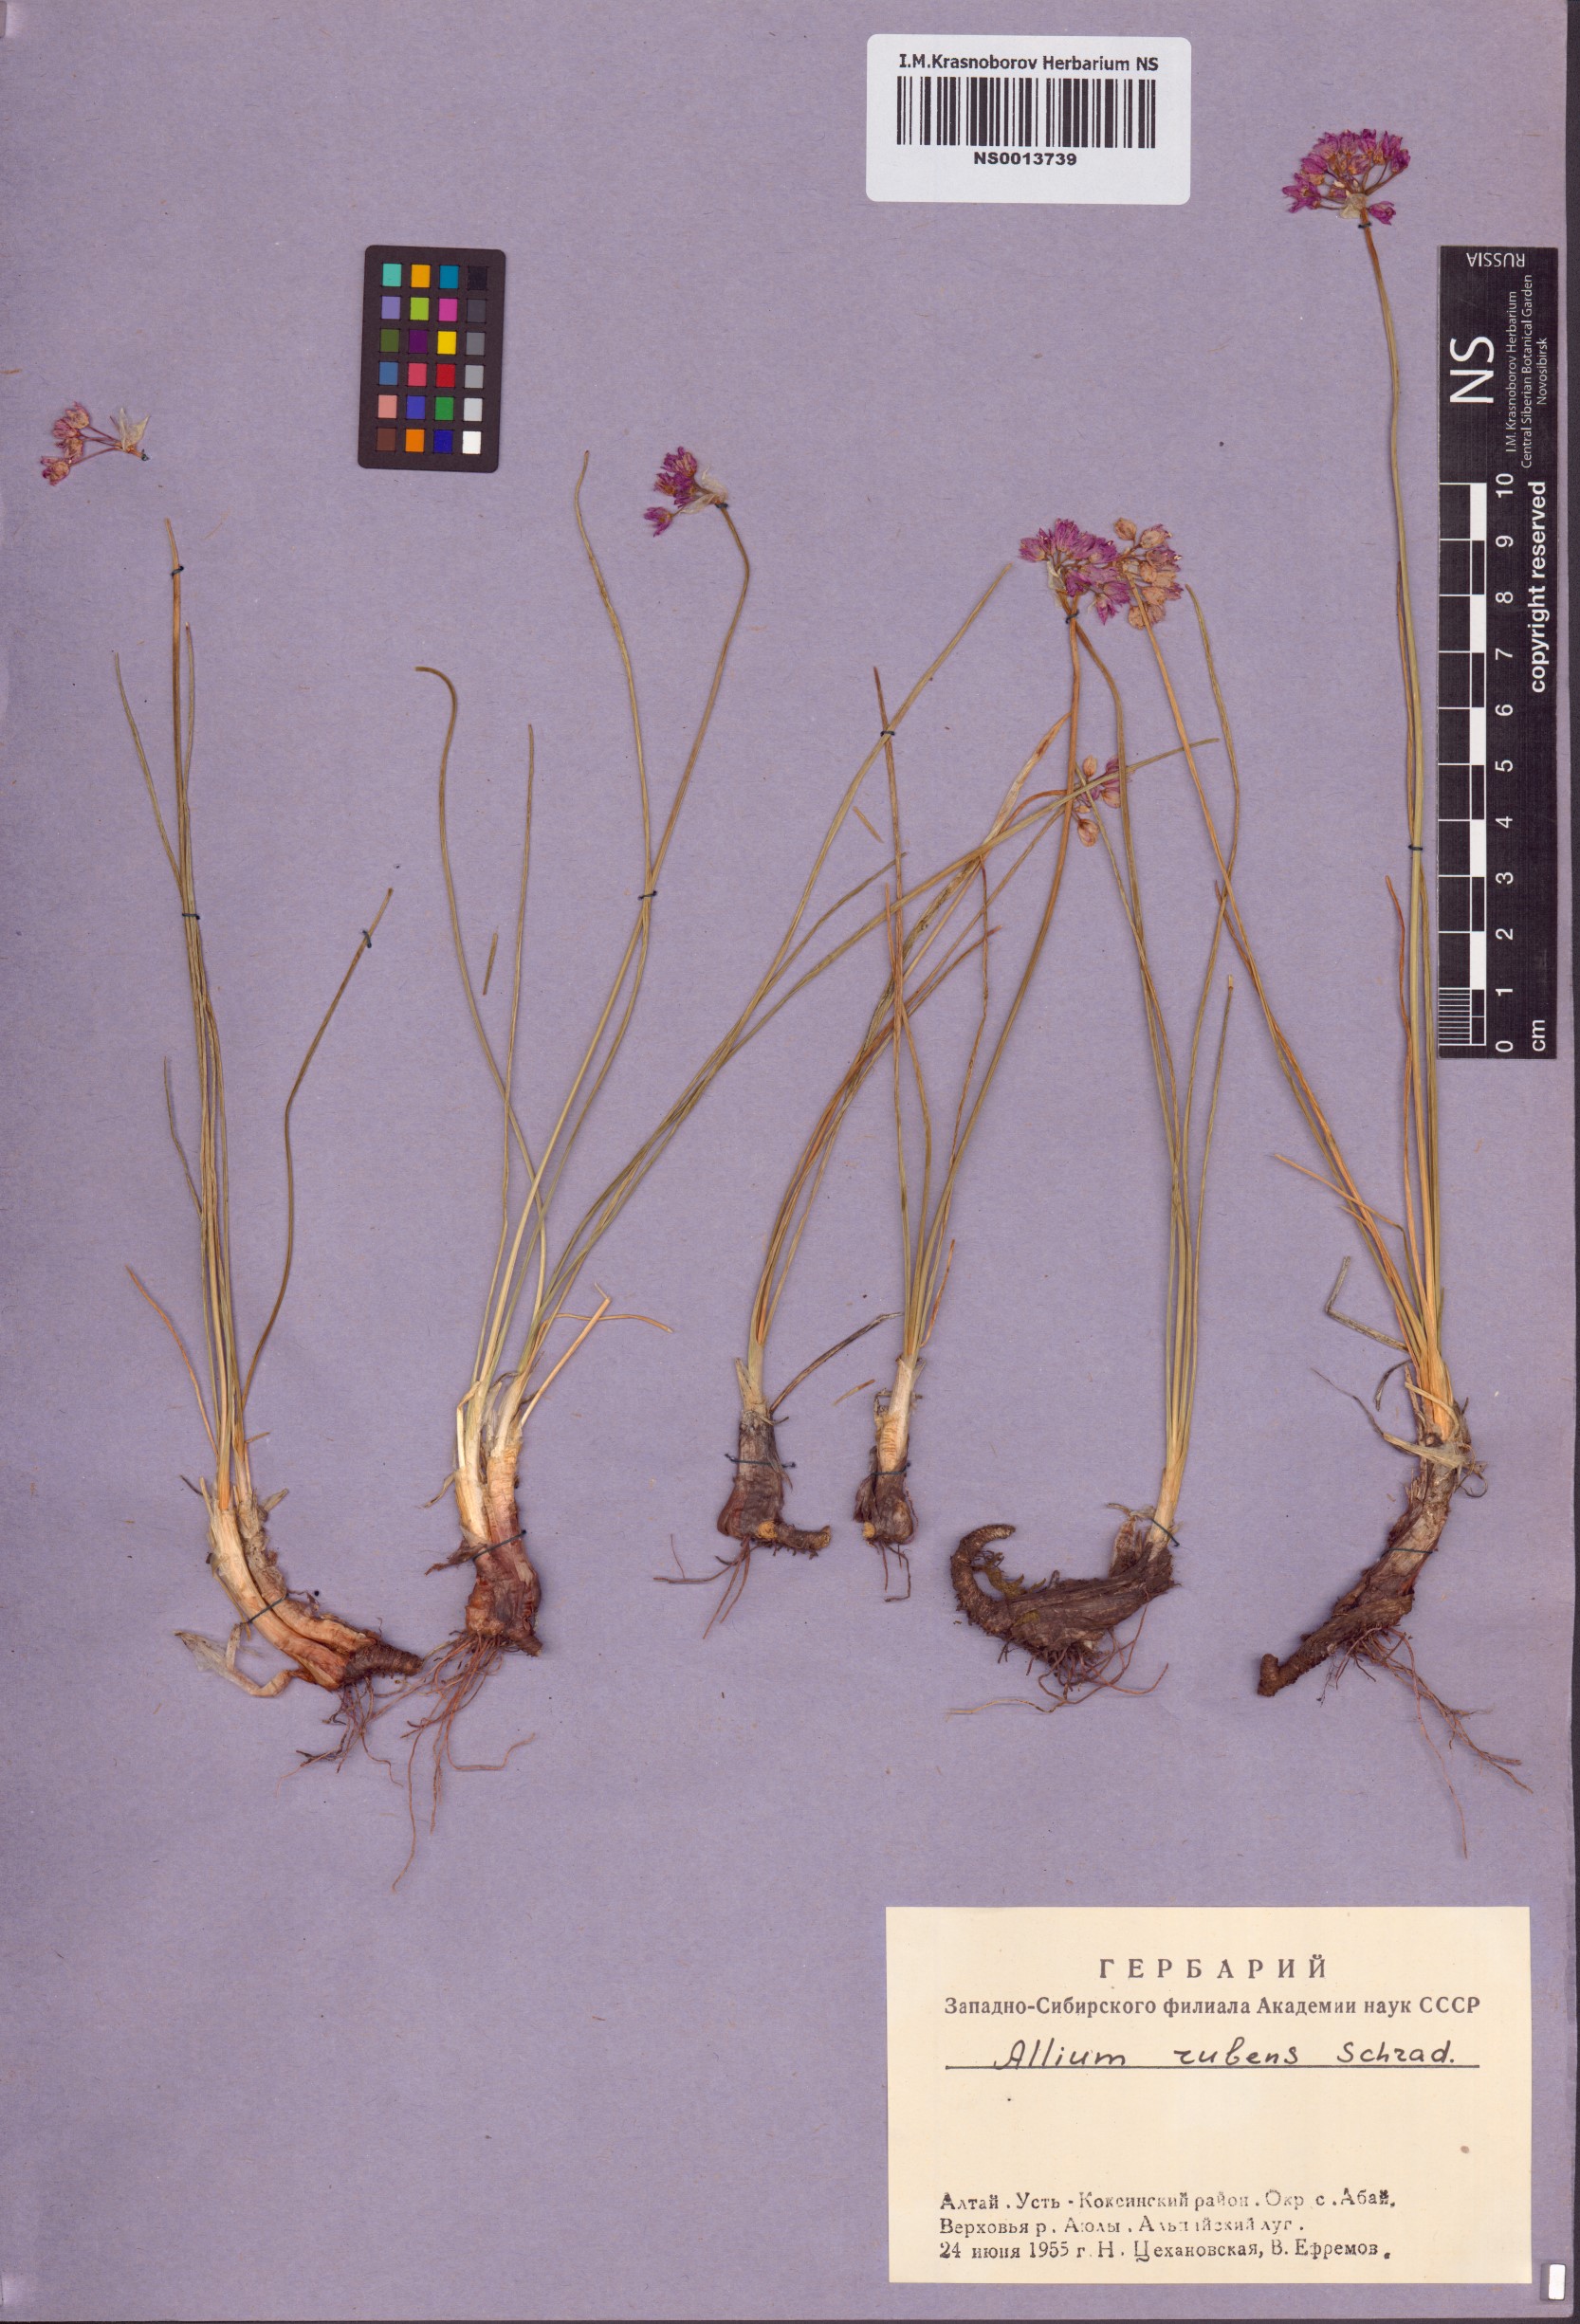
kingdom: Plantae
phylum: Tracheophyta
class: Liliopsida
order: Asparagales
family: Amaryllidaceae
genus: Allium
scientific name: Allium rubens
